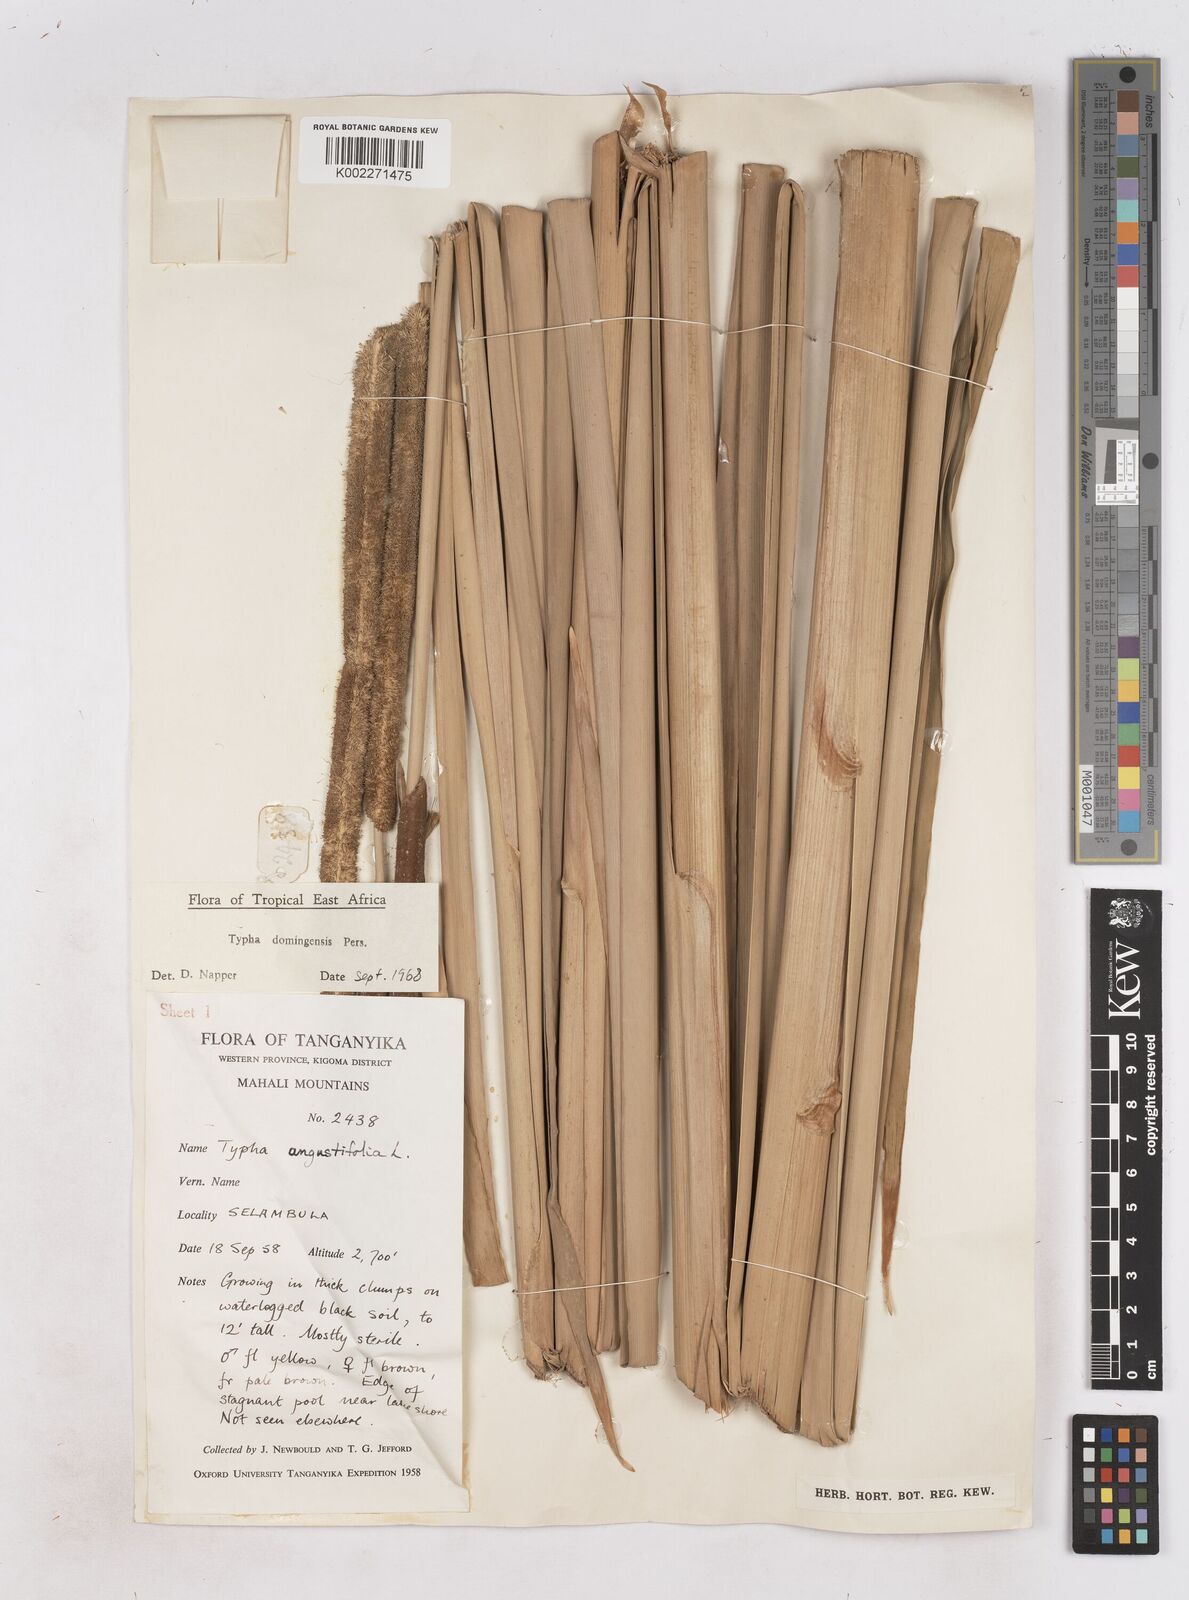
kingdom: Plantae
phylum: Tracheophyta
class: Liliopsida
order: Poales
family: Typhaceae
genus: Typha
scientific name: Typha domingensis
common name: Southern cattail
